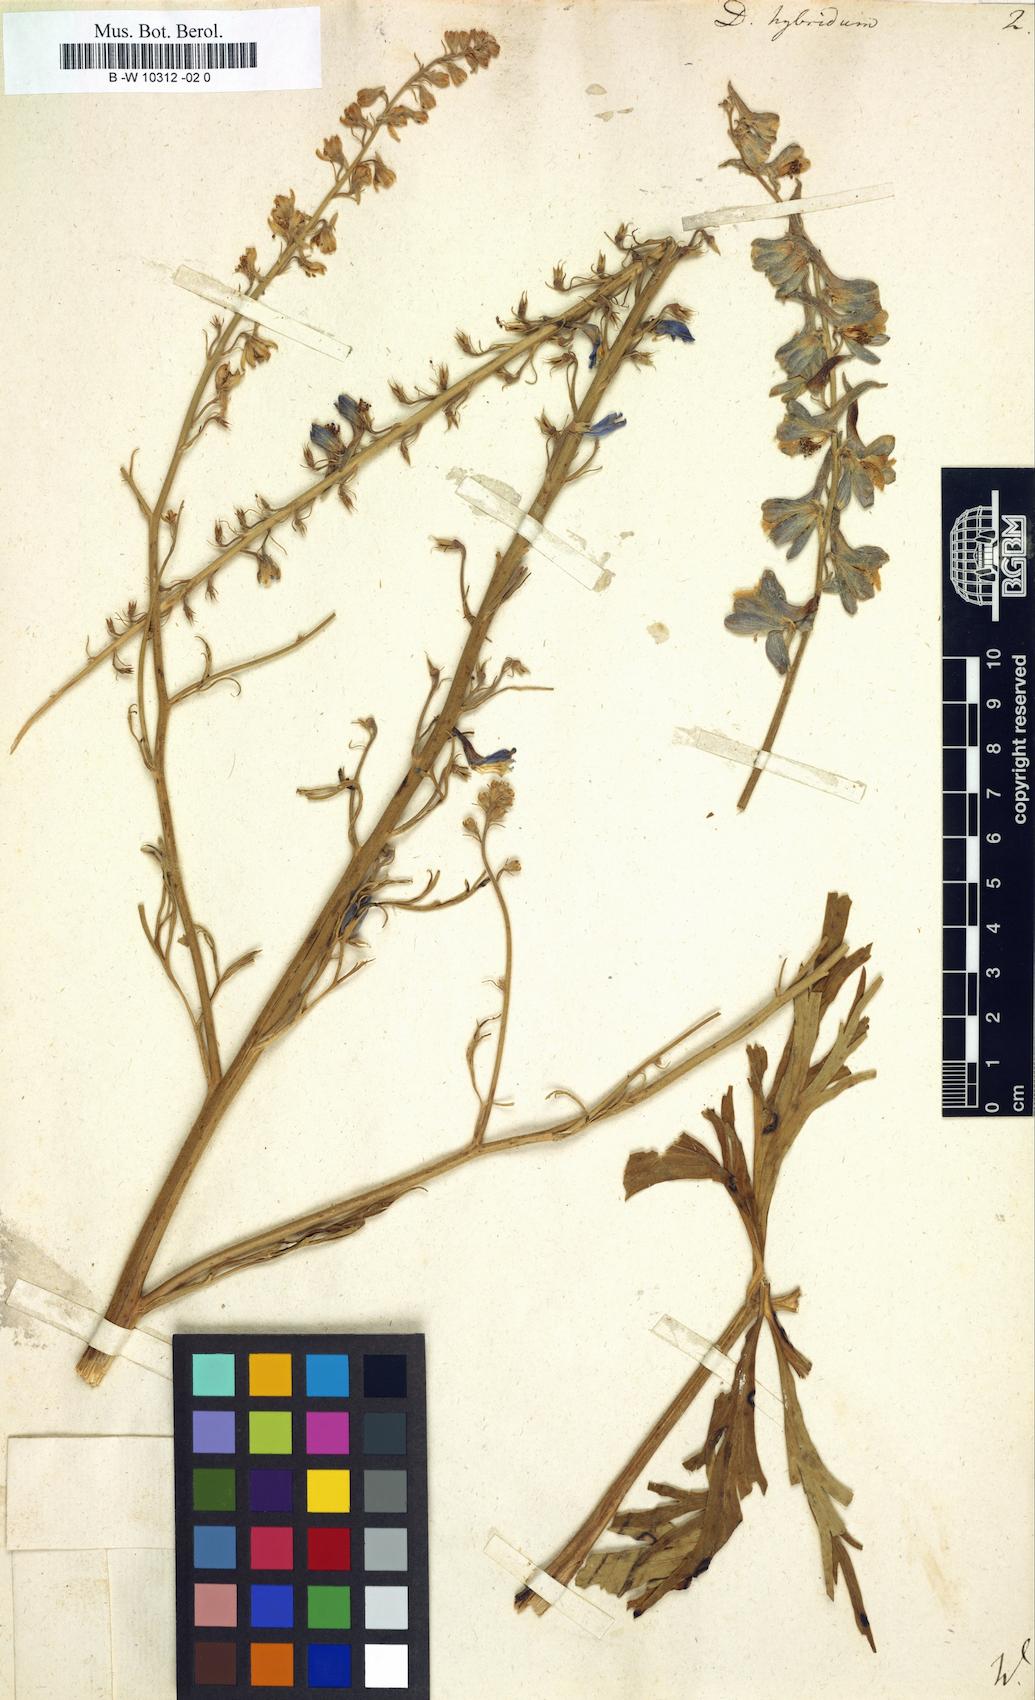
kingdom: Plantae
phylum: Tracheophyta
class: Magnoliopsida
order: Ranunculales
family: Ranunculaceae
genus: Delphinium
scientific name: Delphinium schmalhausenii
